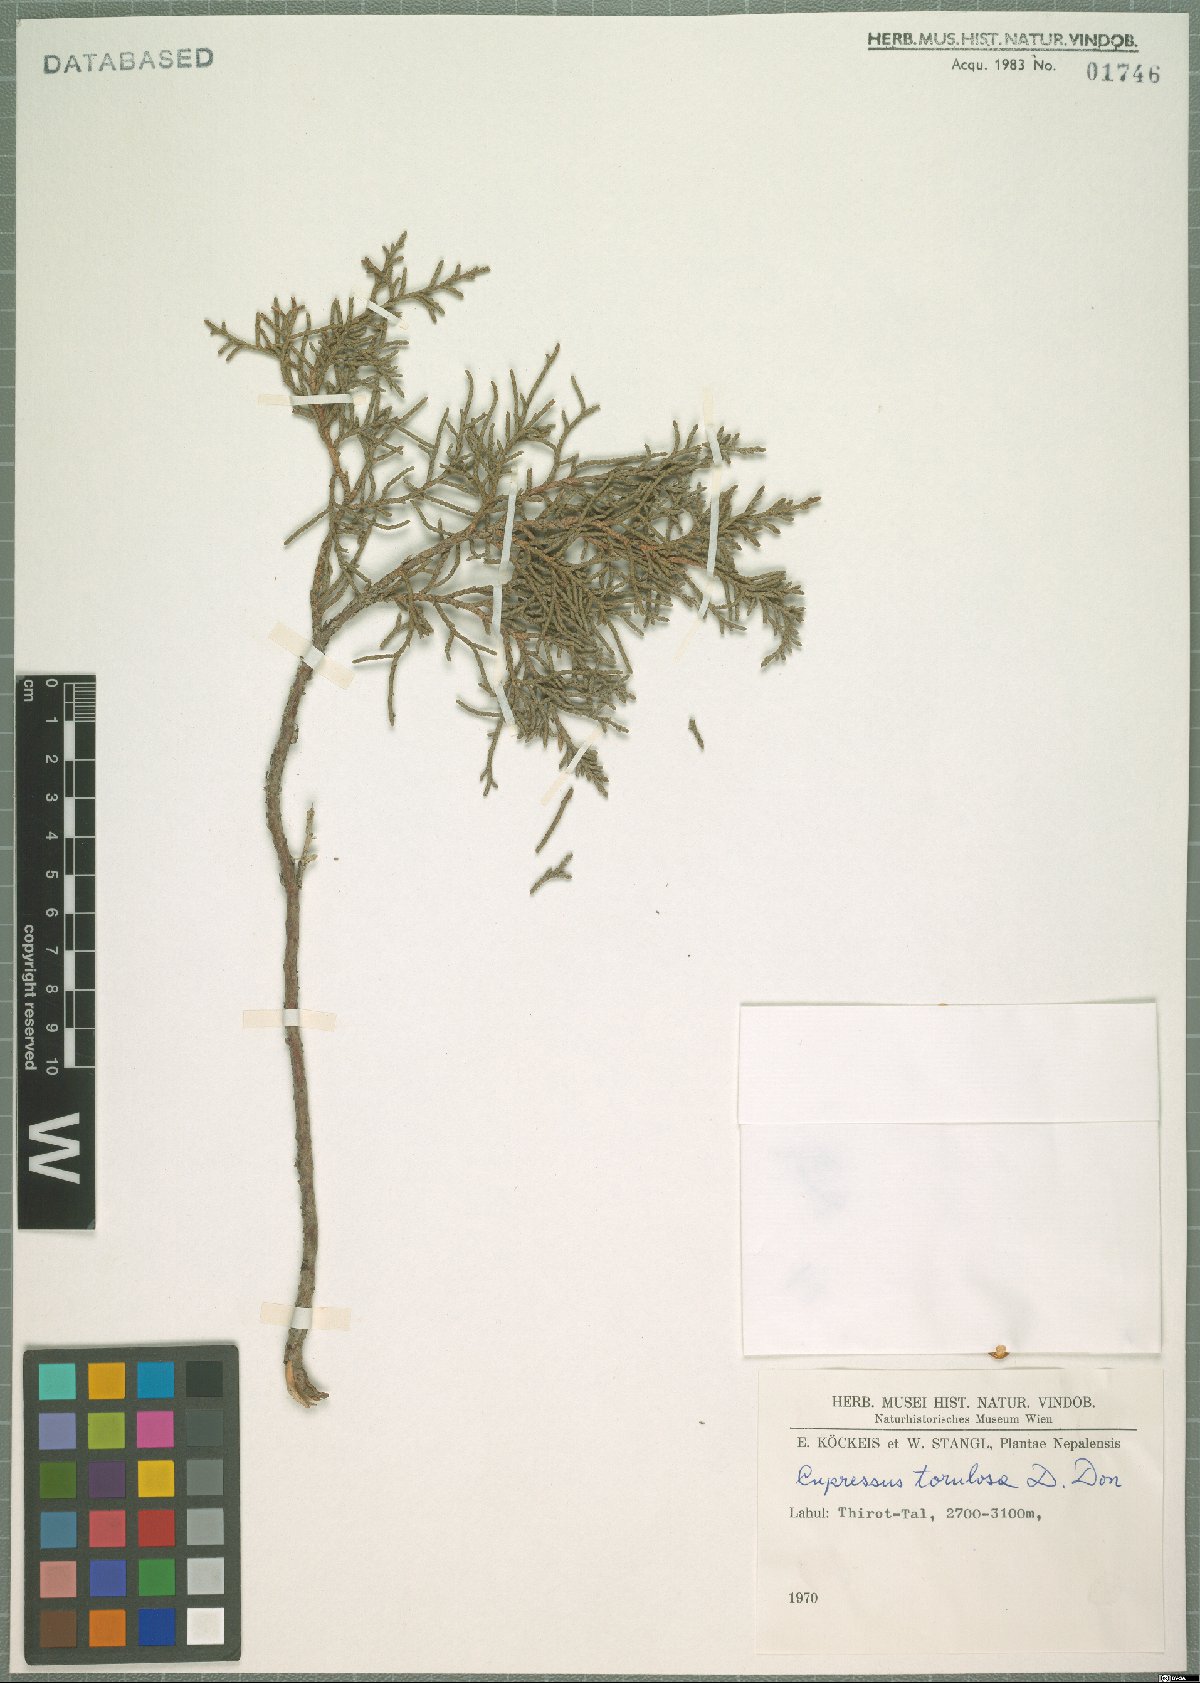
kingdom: Plantae
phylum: Tracheophyta
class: Pinopsida
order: Pinales
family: Cupressaceae
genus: Cupressus
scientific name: Cupressus torulosa
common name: Himalayan cypress
